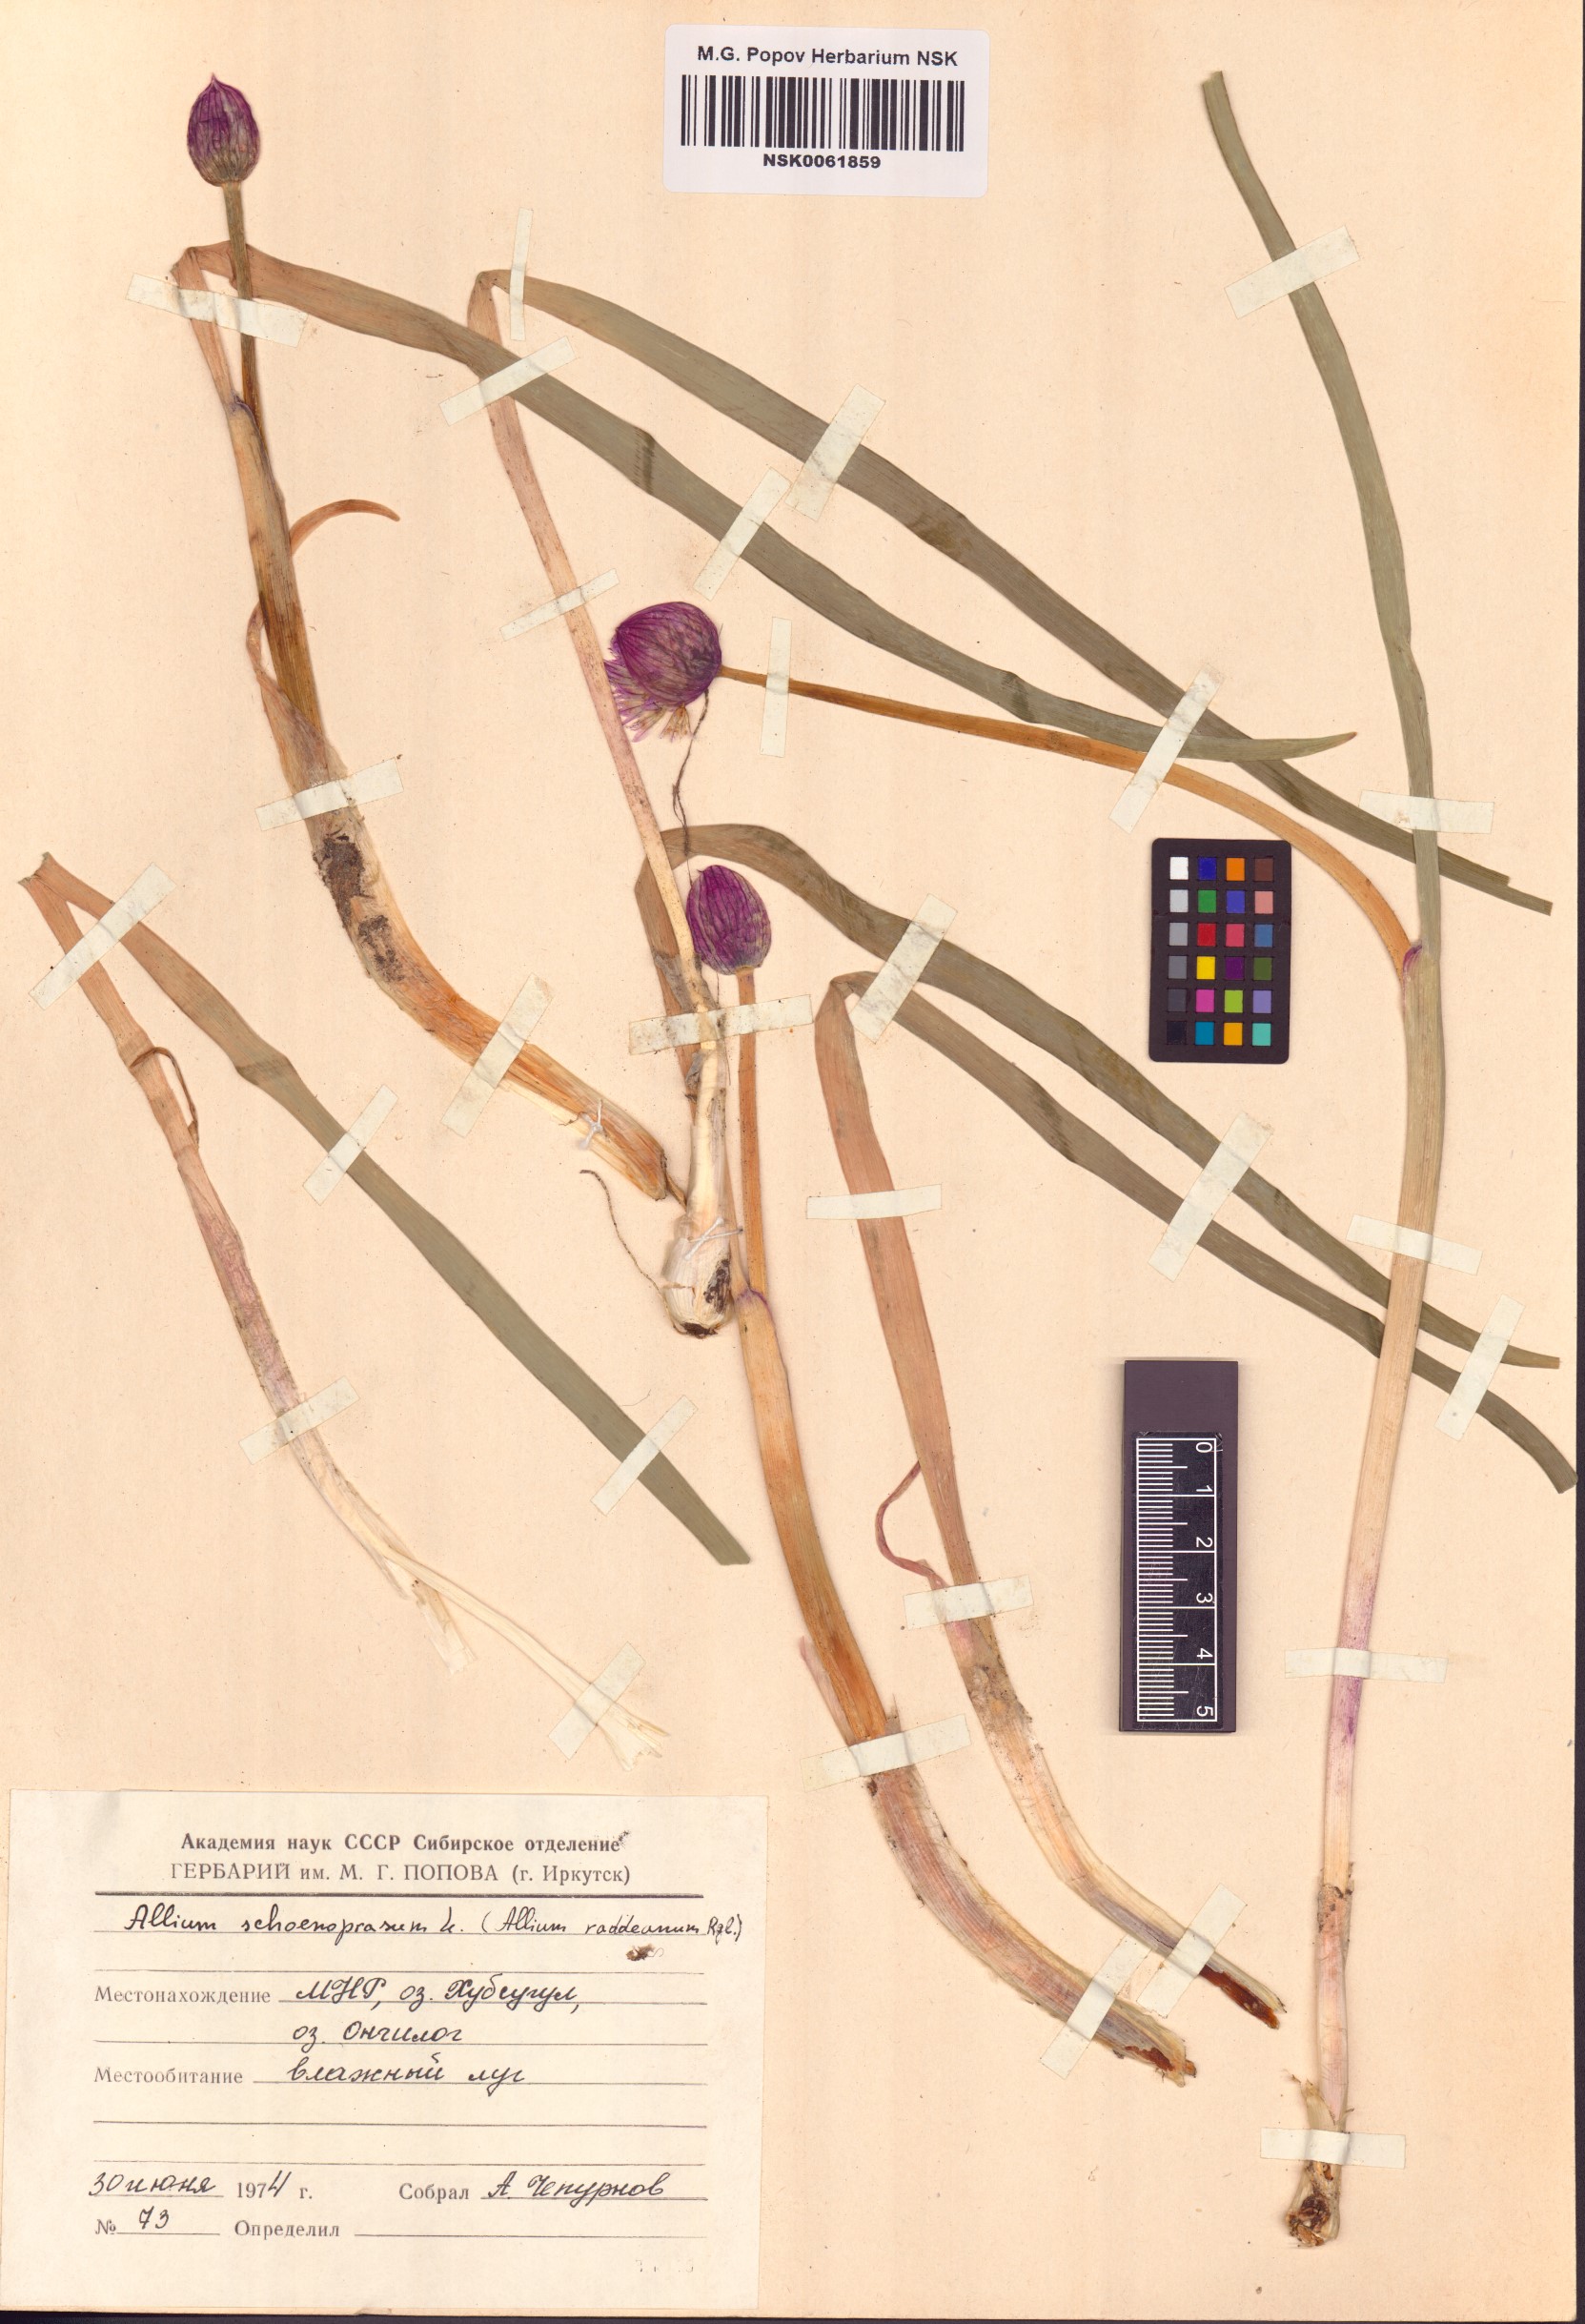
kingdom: Plantae
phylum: Tracheophyta
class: Liliopsida
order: Asparagales
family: Amaryllidaceae
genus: Allium
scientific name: Allium schoenoprasum
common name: Chives
